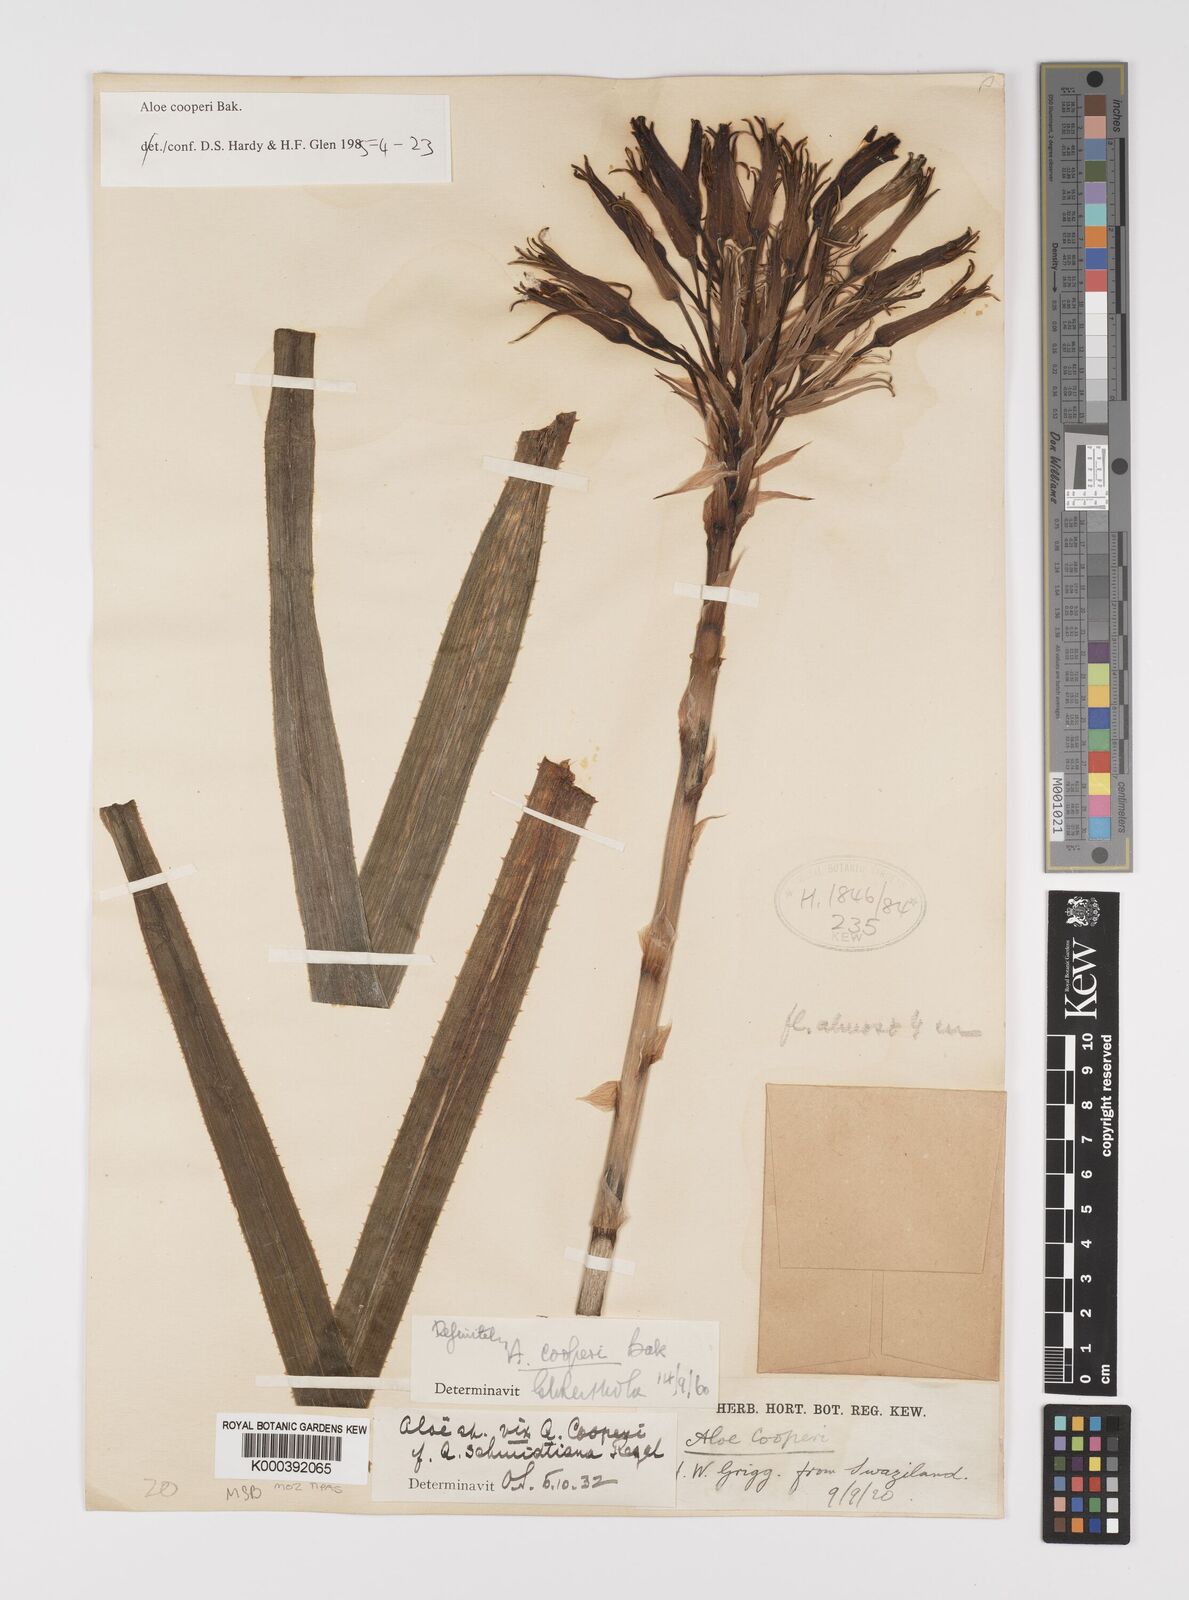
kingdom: Plantae
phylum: Tracheophyta
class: Liliopsida
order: Asparagales
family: Asphodelaceae
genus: Aloe
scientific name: Aloe cooperi
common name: Cooper's aloe
